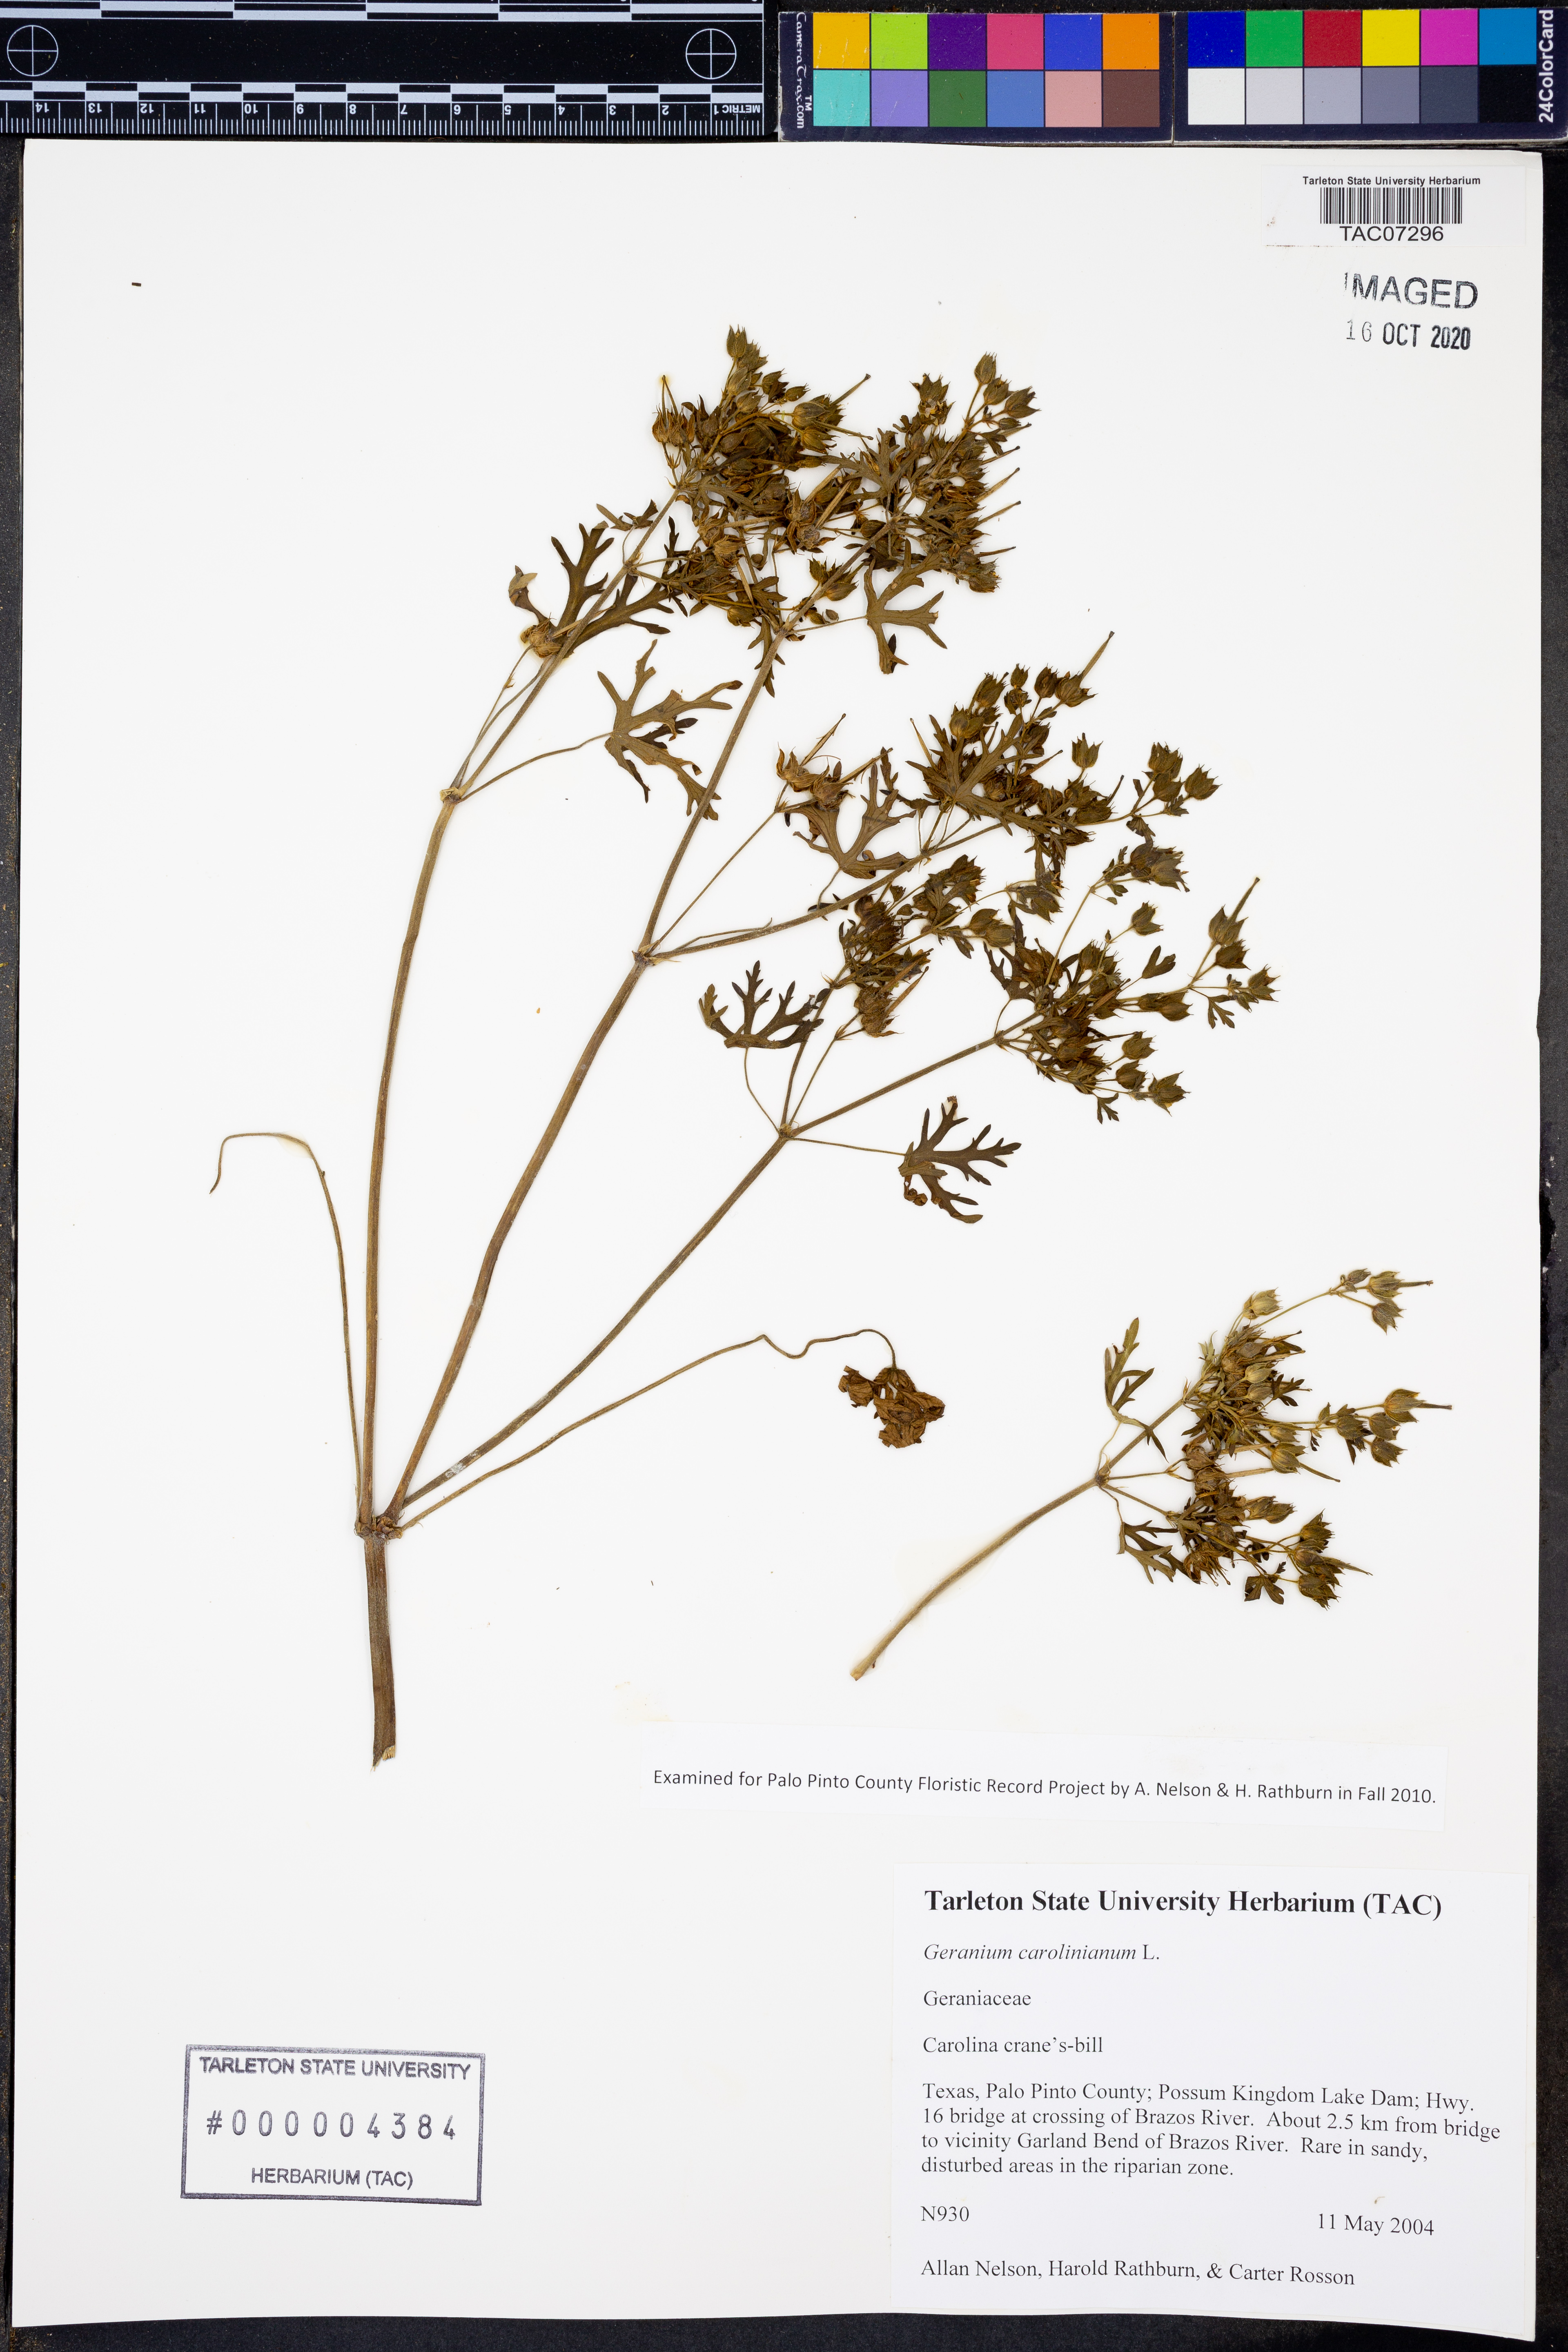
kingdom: Plantae
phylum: Tracheophyta
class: Magnoliopsida
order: Geraniales
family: Geraniaceae
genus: Geranium
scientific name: Geranium carolinianum
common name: Carolina crane's-bill
